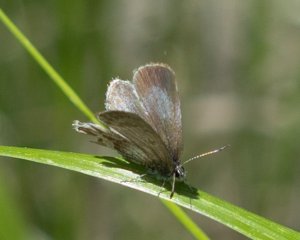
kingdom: Animalia
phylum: Arthropoda
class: Insecta
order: Lepidoptera
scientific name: Lepidoptera
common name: Butterflies
